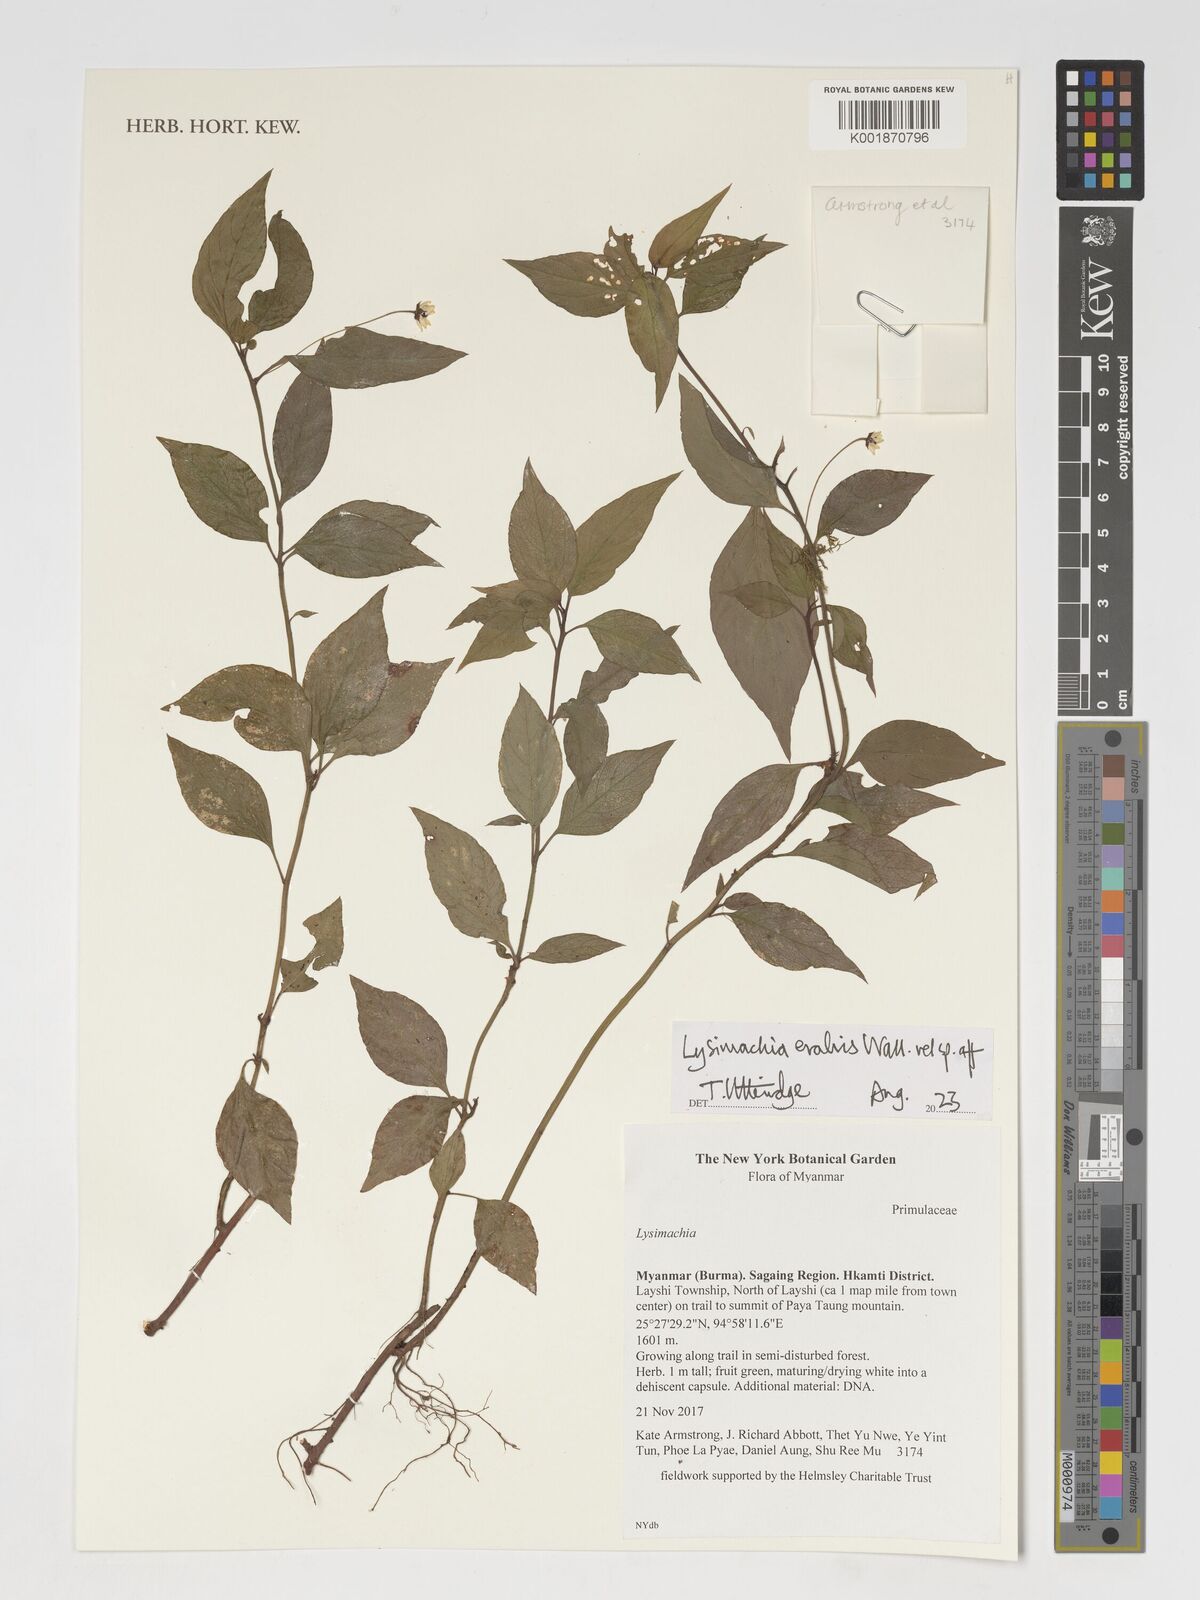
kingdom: Plantae
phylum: Tracheophyta
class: Magnoliopsida
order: Ericales
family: Primulaceae
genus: Lysimachia
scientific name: Lysimachia evalvis
